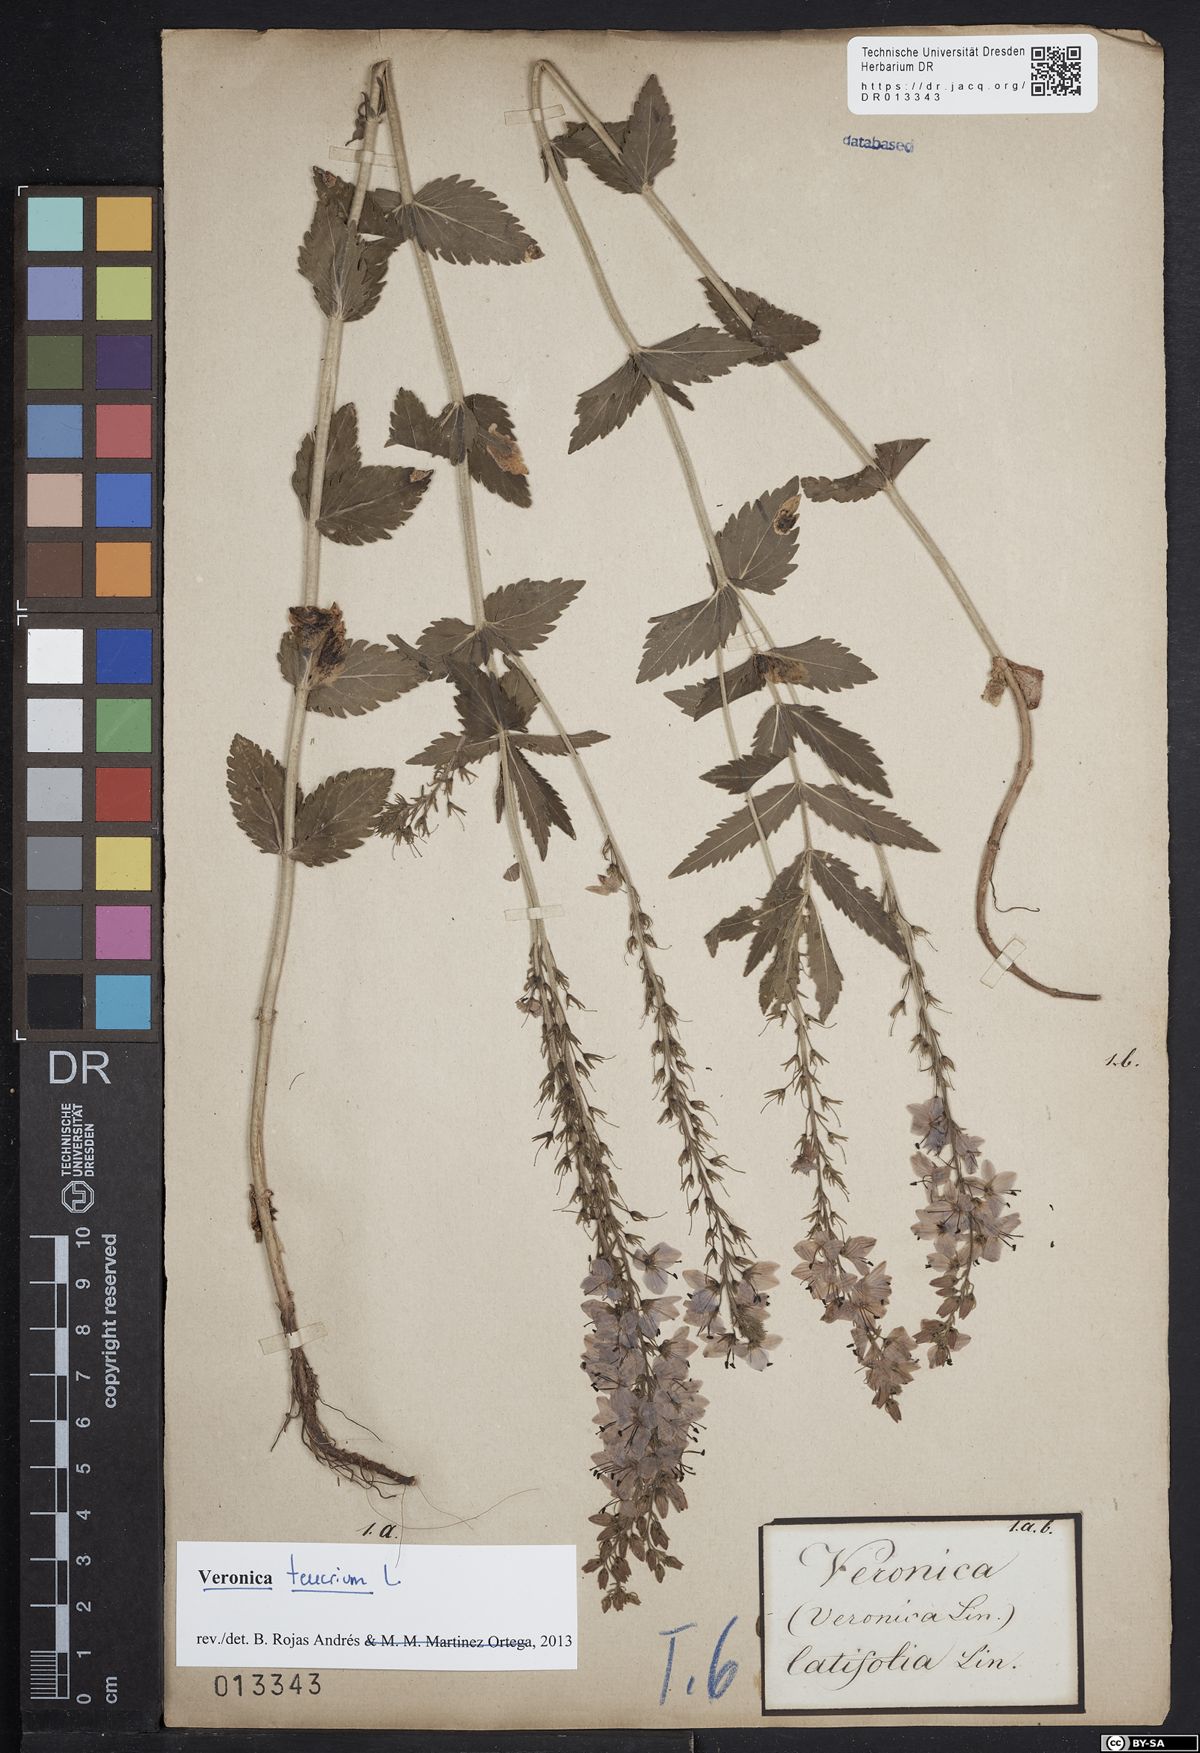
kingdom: Plantae
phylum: Tracheophyta
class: Magnoliopsida
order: Lamiales
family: Plantaginaceae
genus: Veronica
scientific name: Veronica teucrium
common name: Large speedwell
